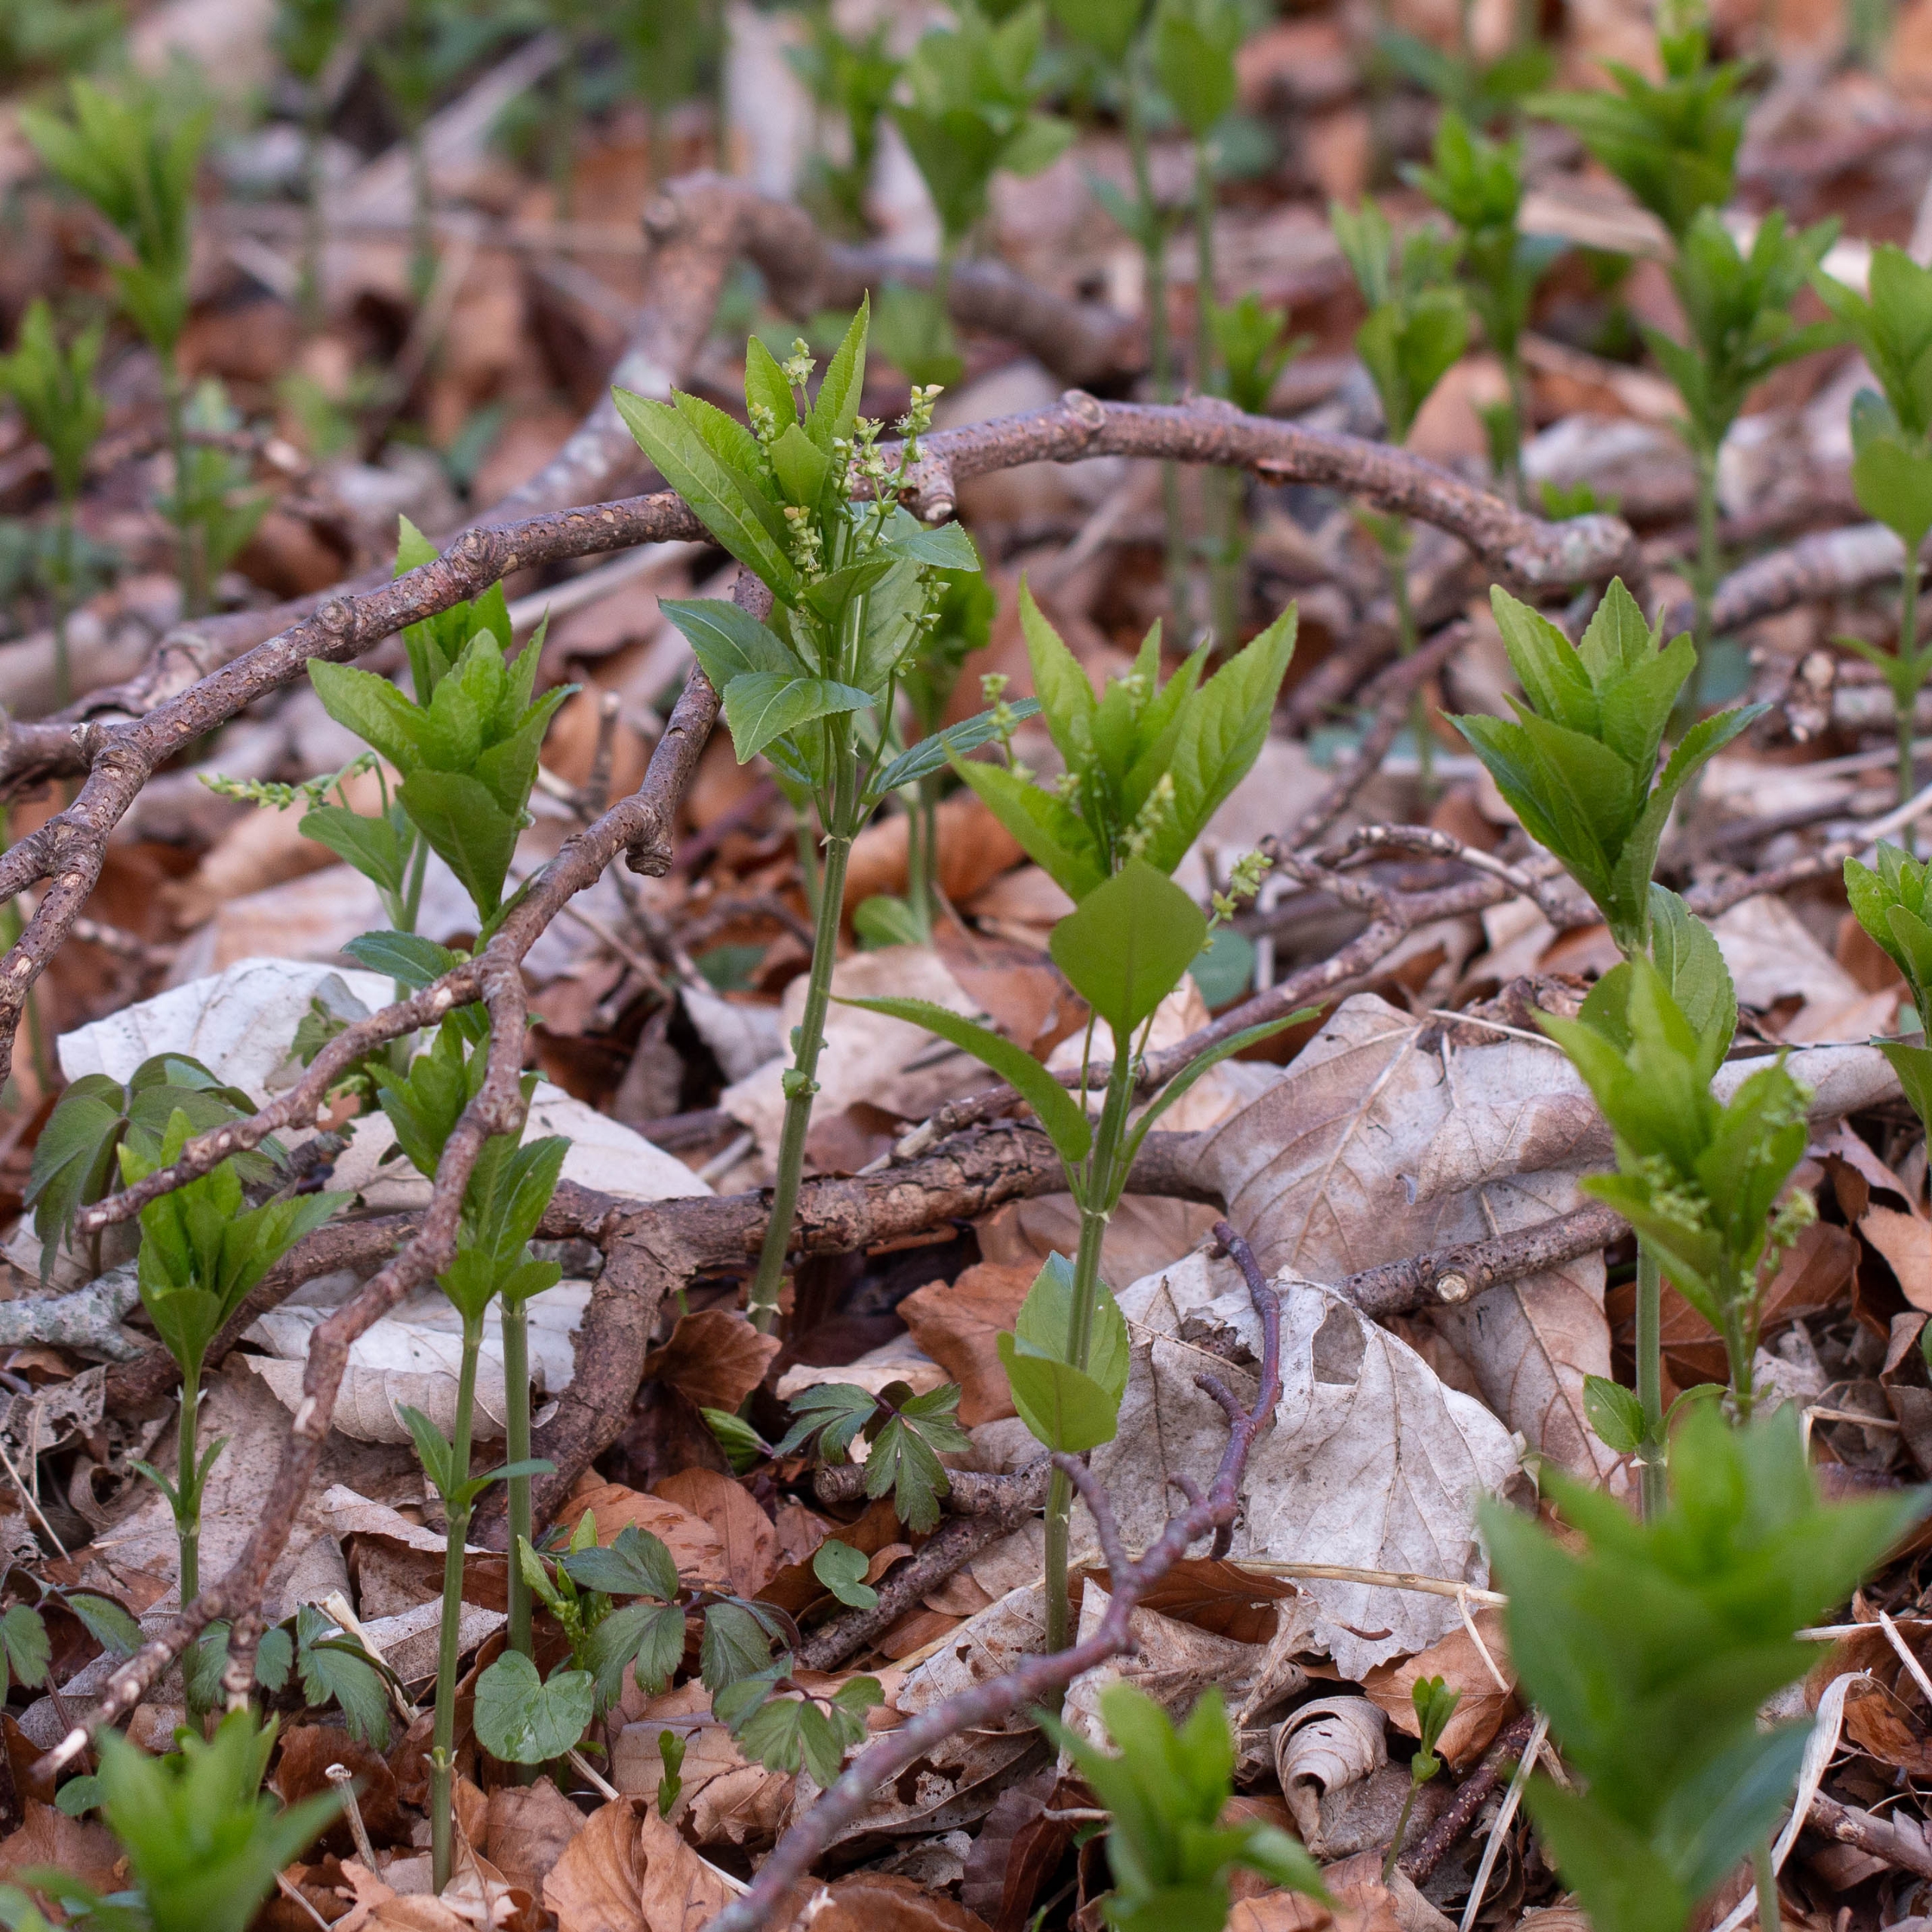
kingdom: Plantae
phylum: Tracheophyta
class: Magnoliopsida
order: Malpighiales
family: Euphorbiaceae
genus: Mercurialis
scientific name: Mercurialis perennis
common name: Almindelig bingelurt
